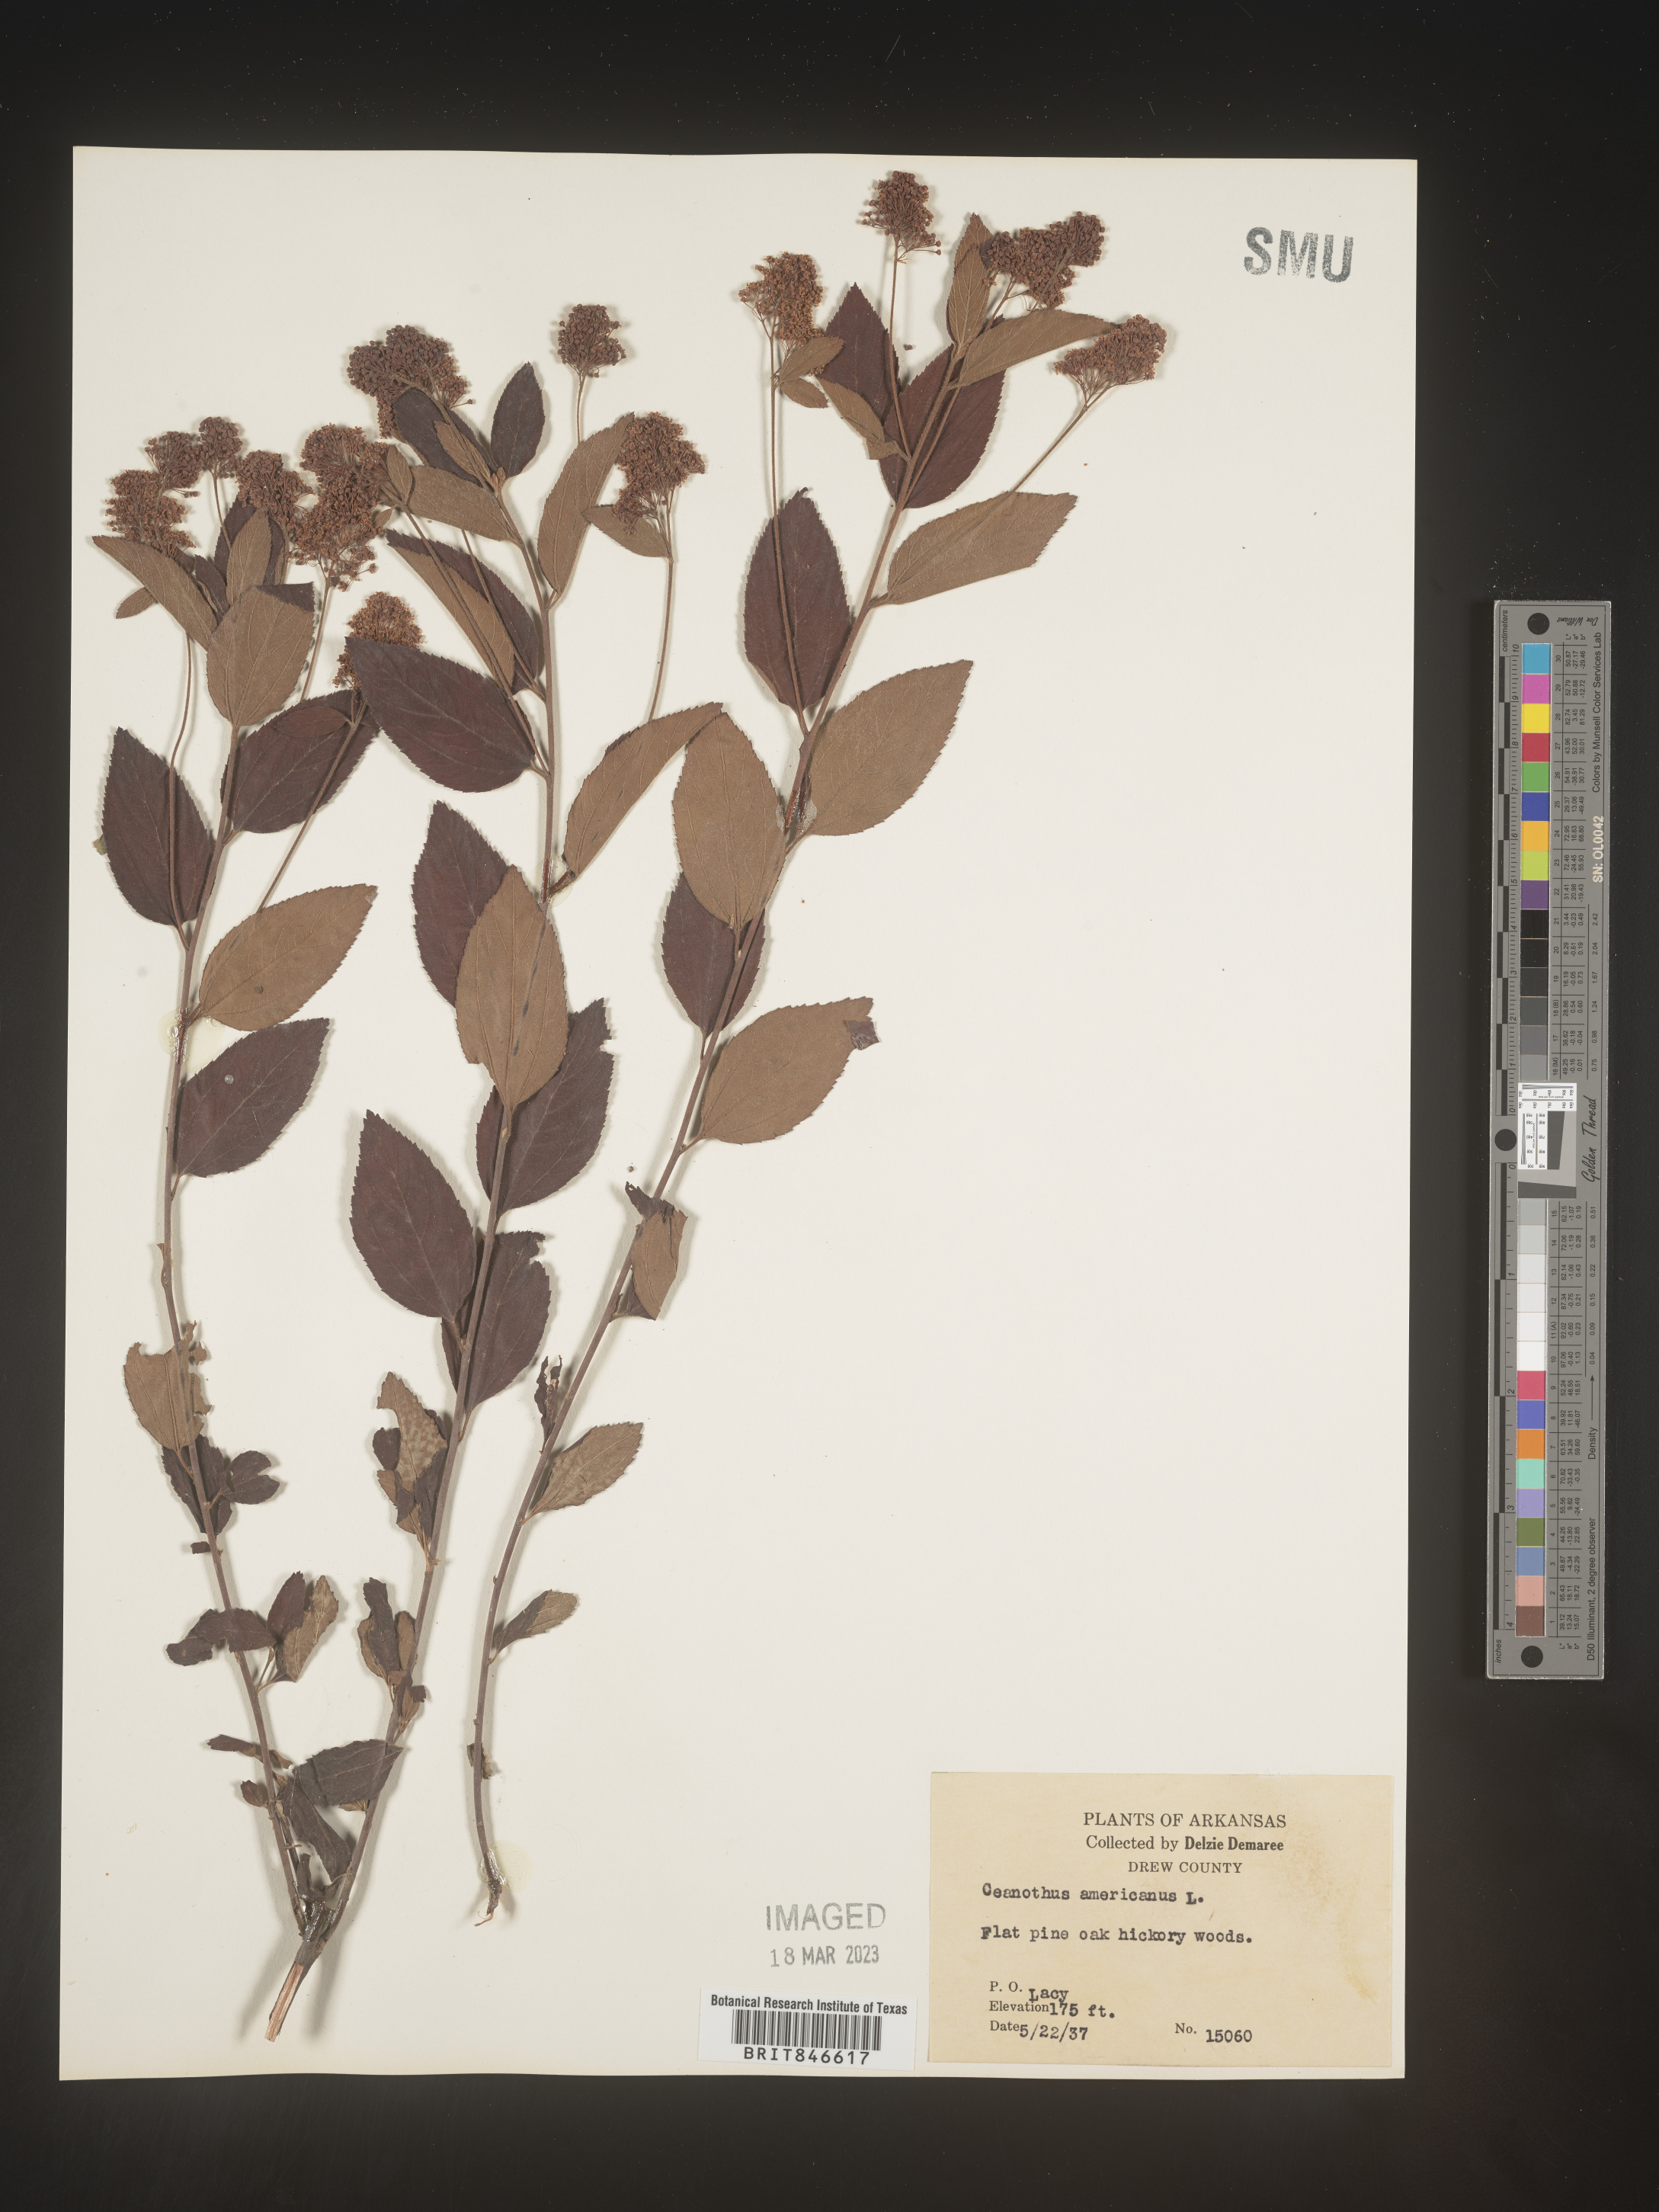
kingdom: Plantae
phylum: Tracheophyta
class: Magnoliopsida
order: Rosales
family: Rhamnaceae
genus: Ceanothus
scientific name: Ceanothus americanus
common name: Redroot
